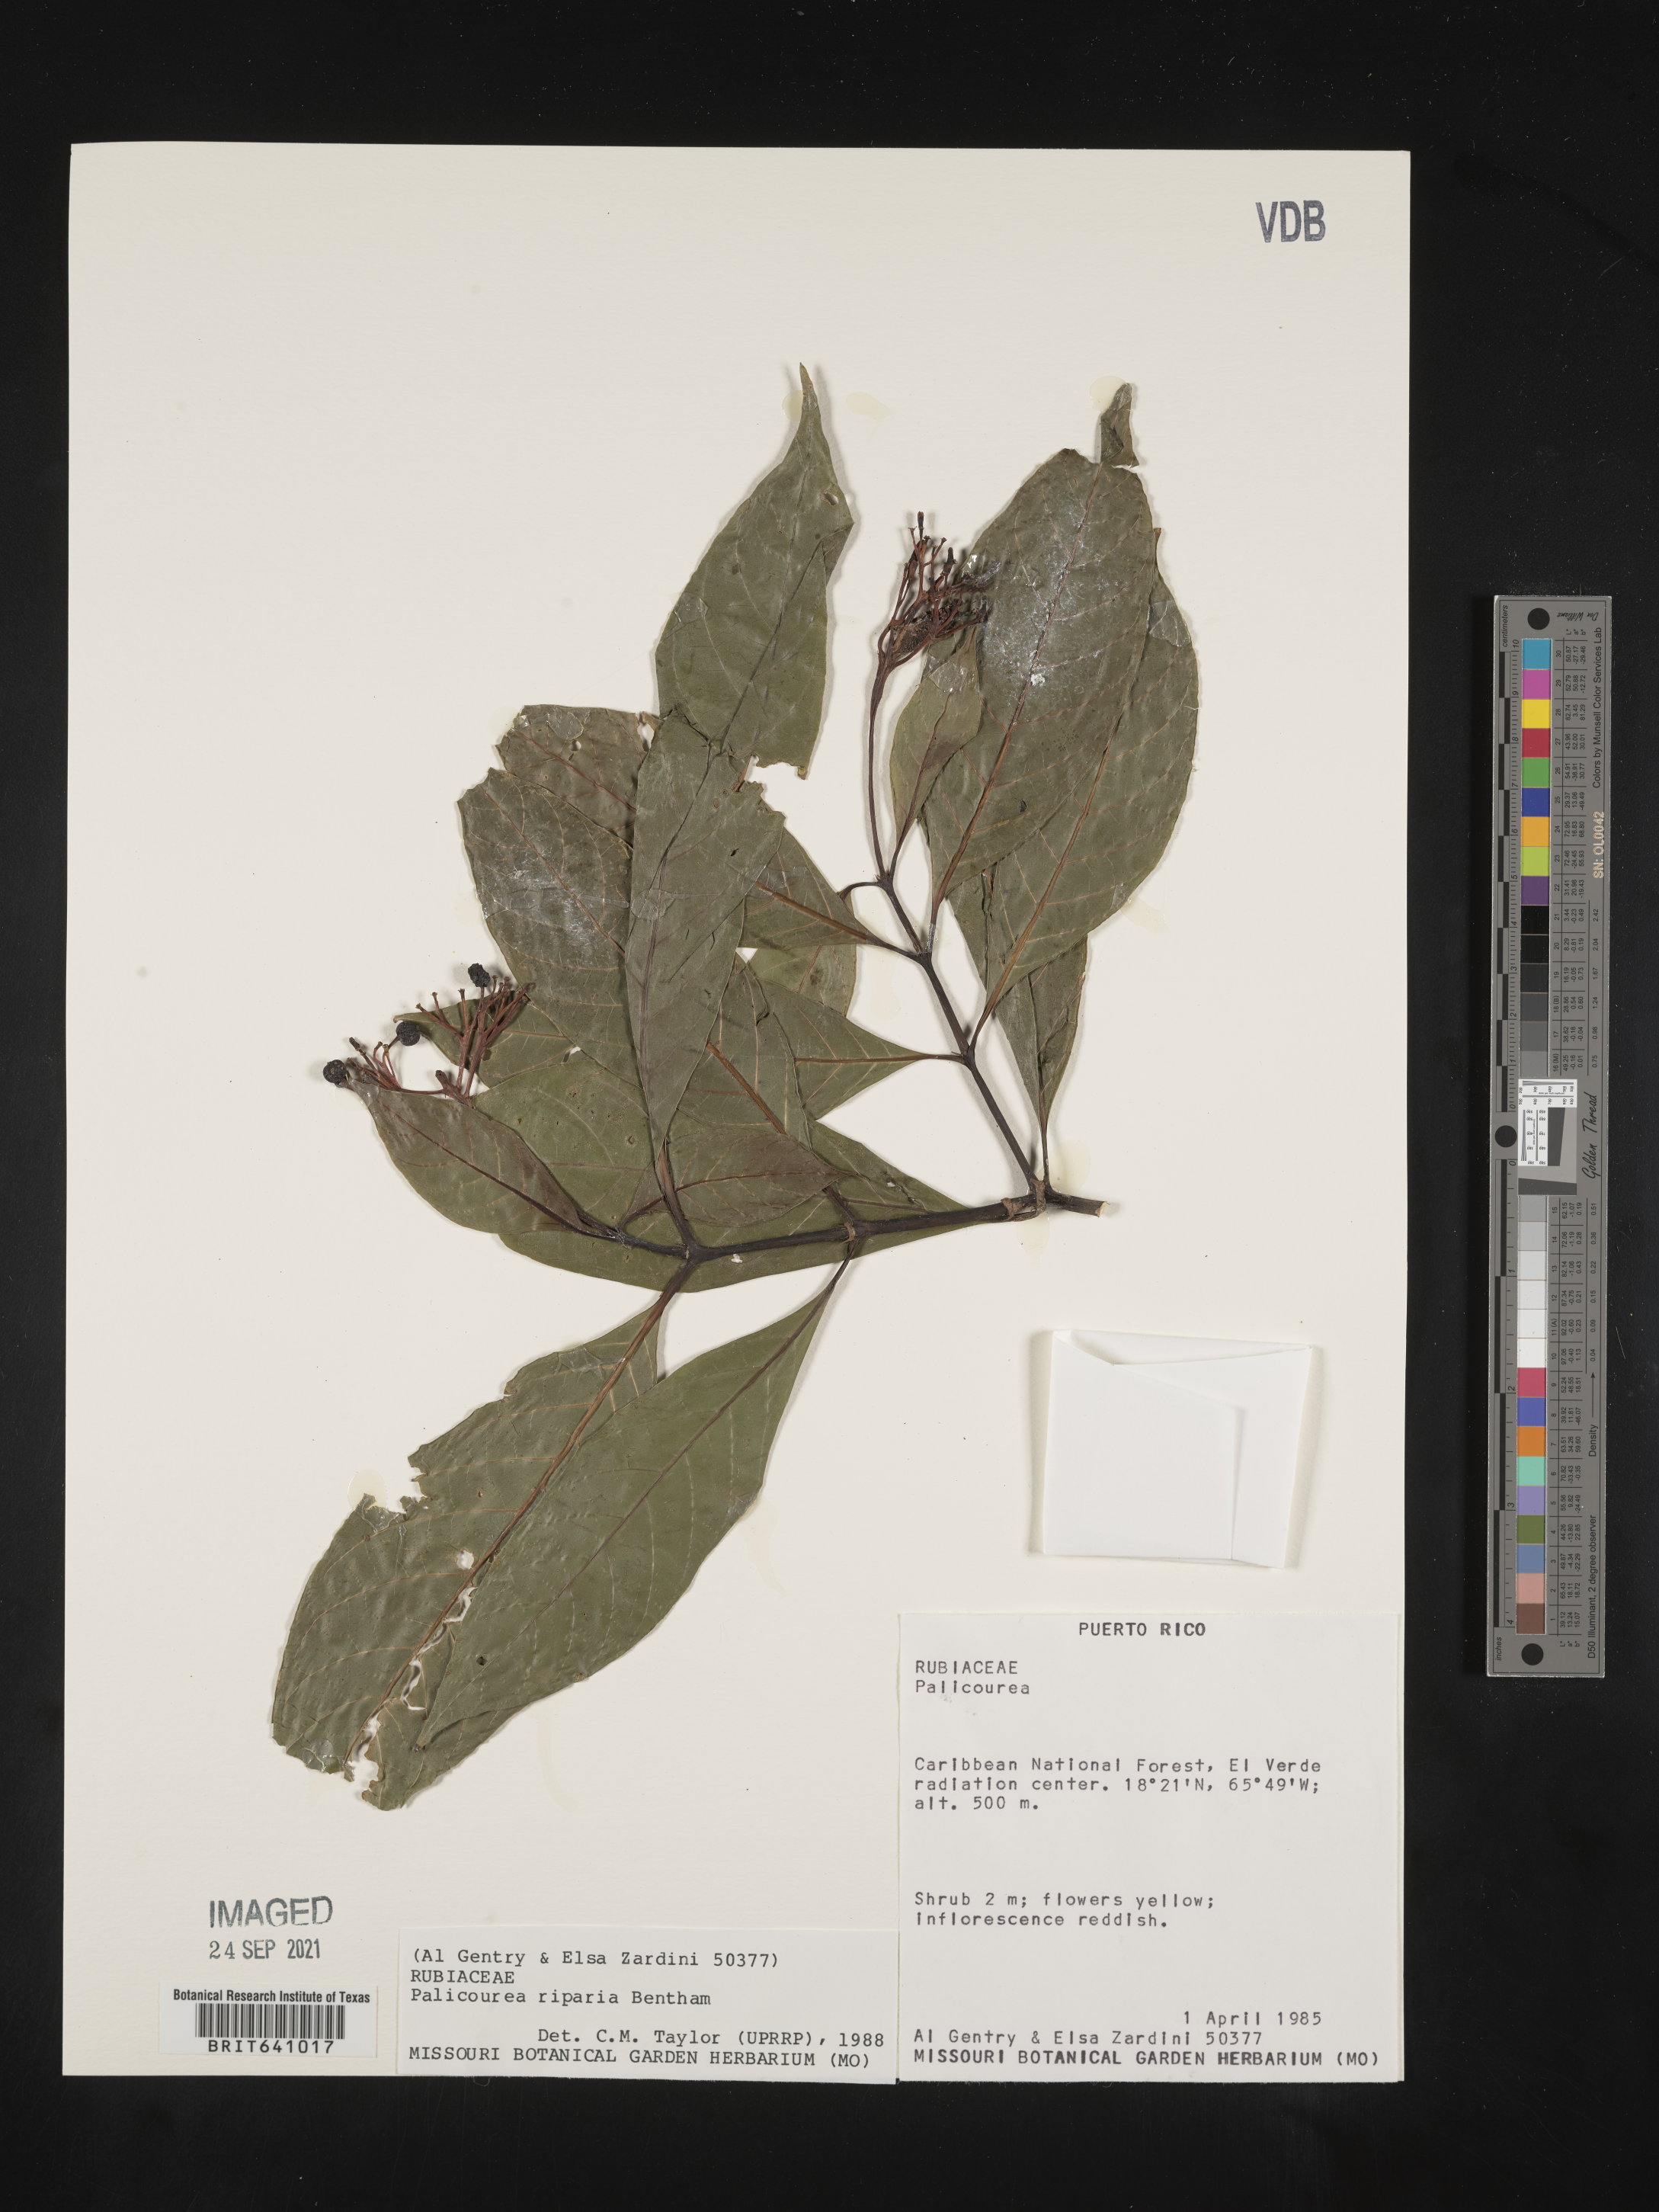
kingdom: Plantae
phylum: Tracheophyta
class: Magnoliopsida
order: Gentianales
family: Rubiaceae
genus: Palicourea
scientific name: Palicourea
